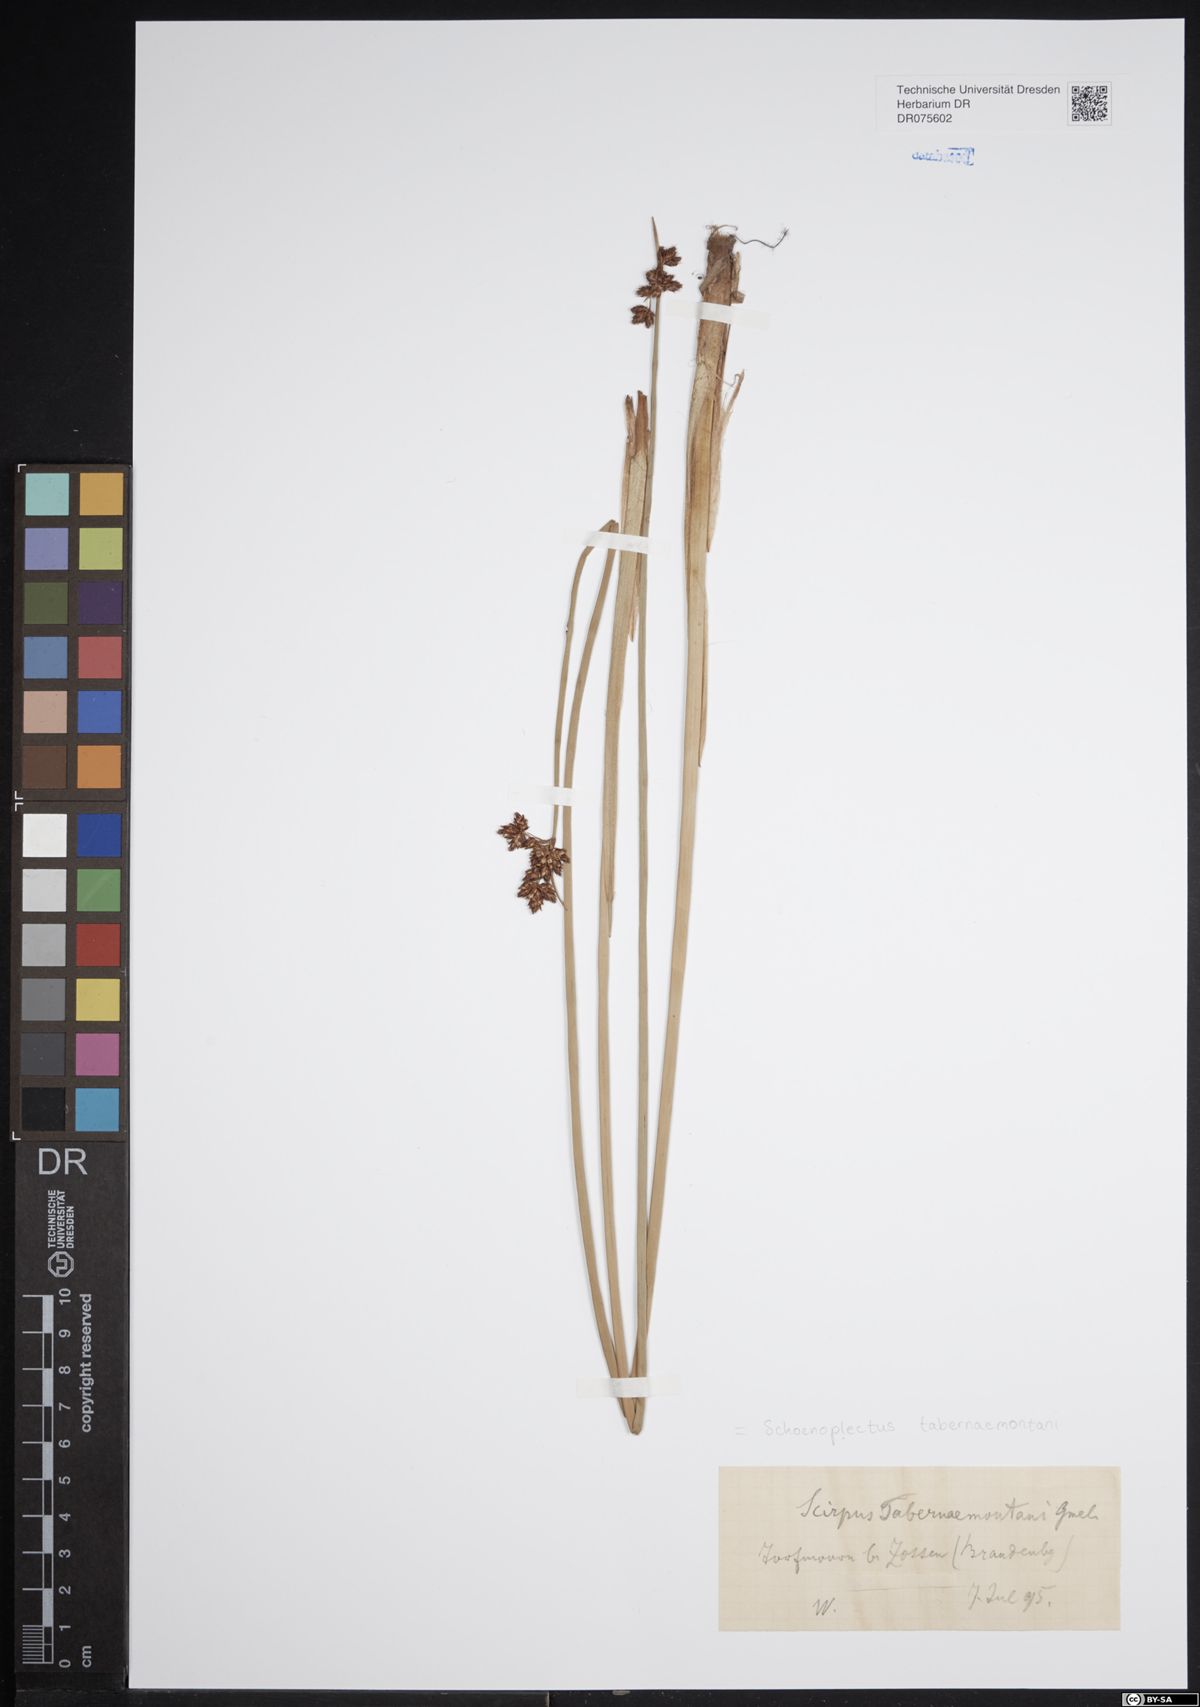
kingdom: Plantae
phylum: Tracheophyta
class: Liliopsida
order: Poales
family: Cyperaceae
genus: Schoenoplectus
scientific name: Schoenoplectus tabernaemontani
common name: Grey club-rush
